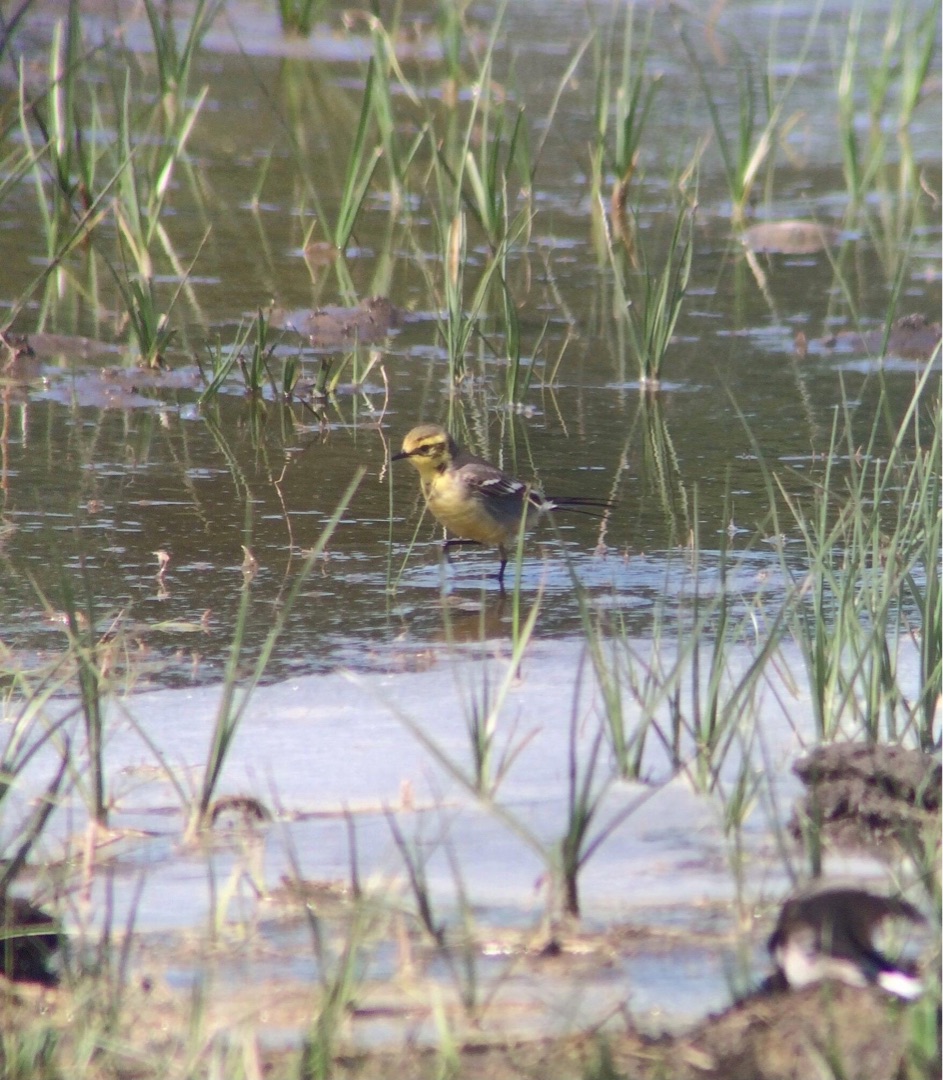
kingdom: Animalia
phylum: Chordata
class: Aves
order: Passeriformes
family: Motacillidae
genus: Motacilla
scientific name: Motacilla citreola
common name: Citronvipstjert
